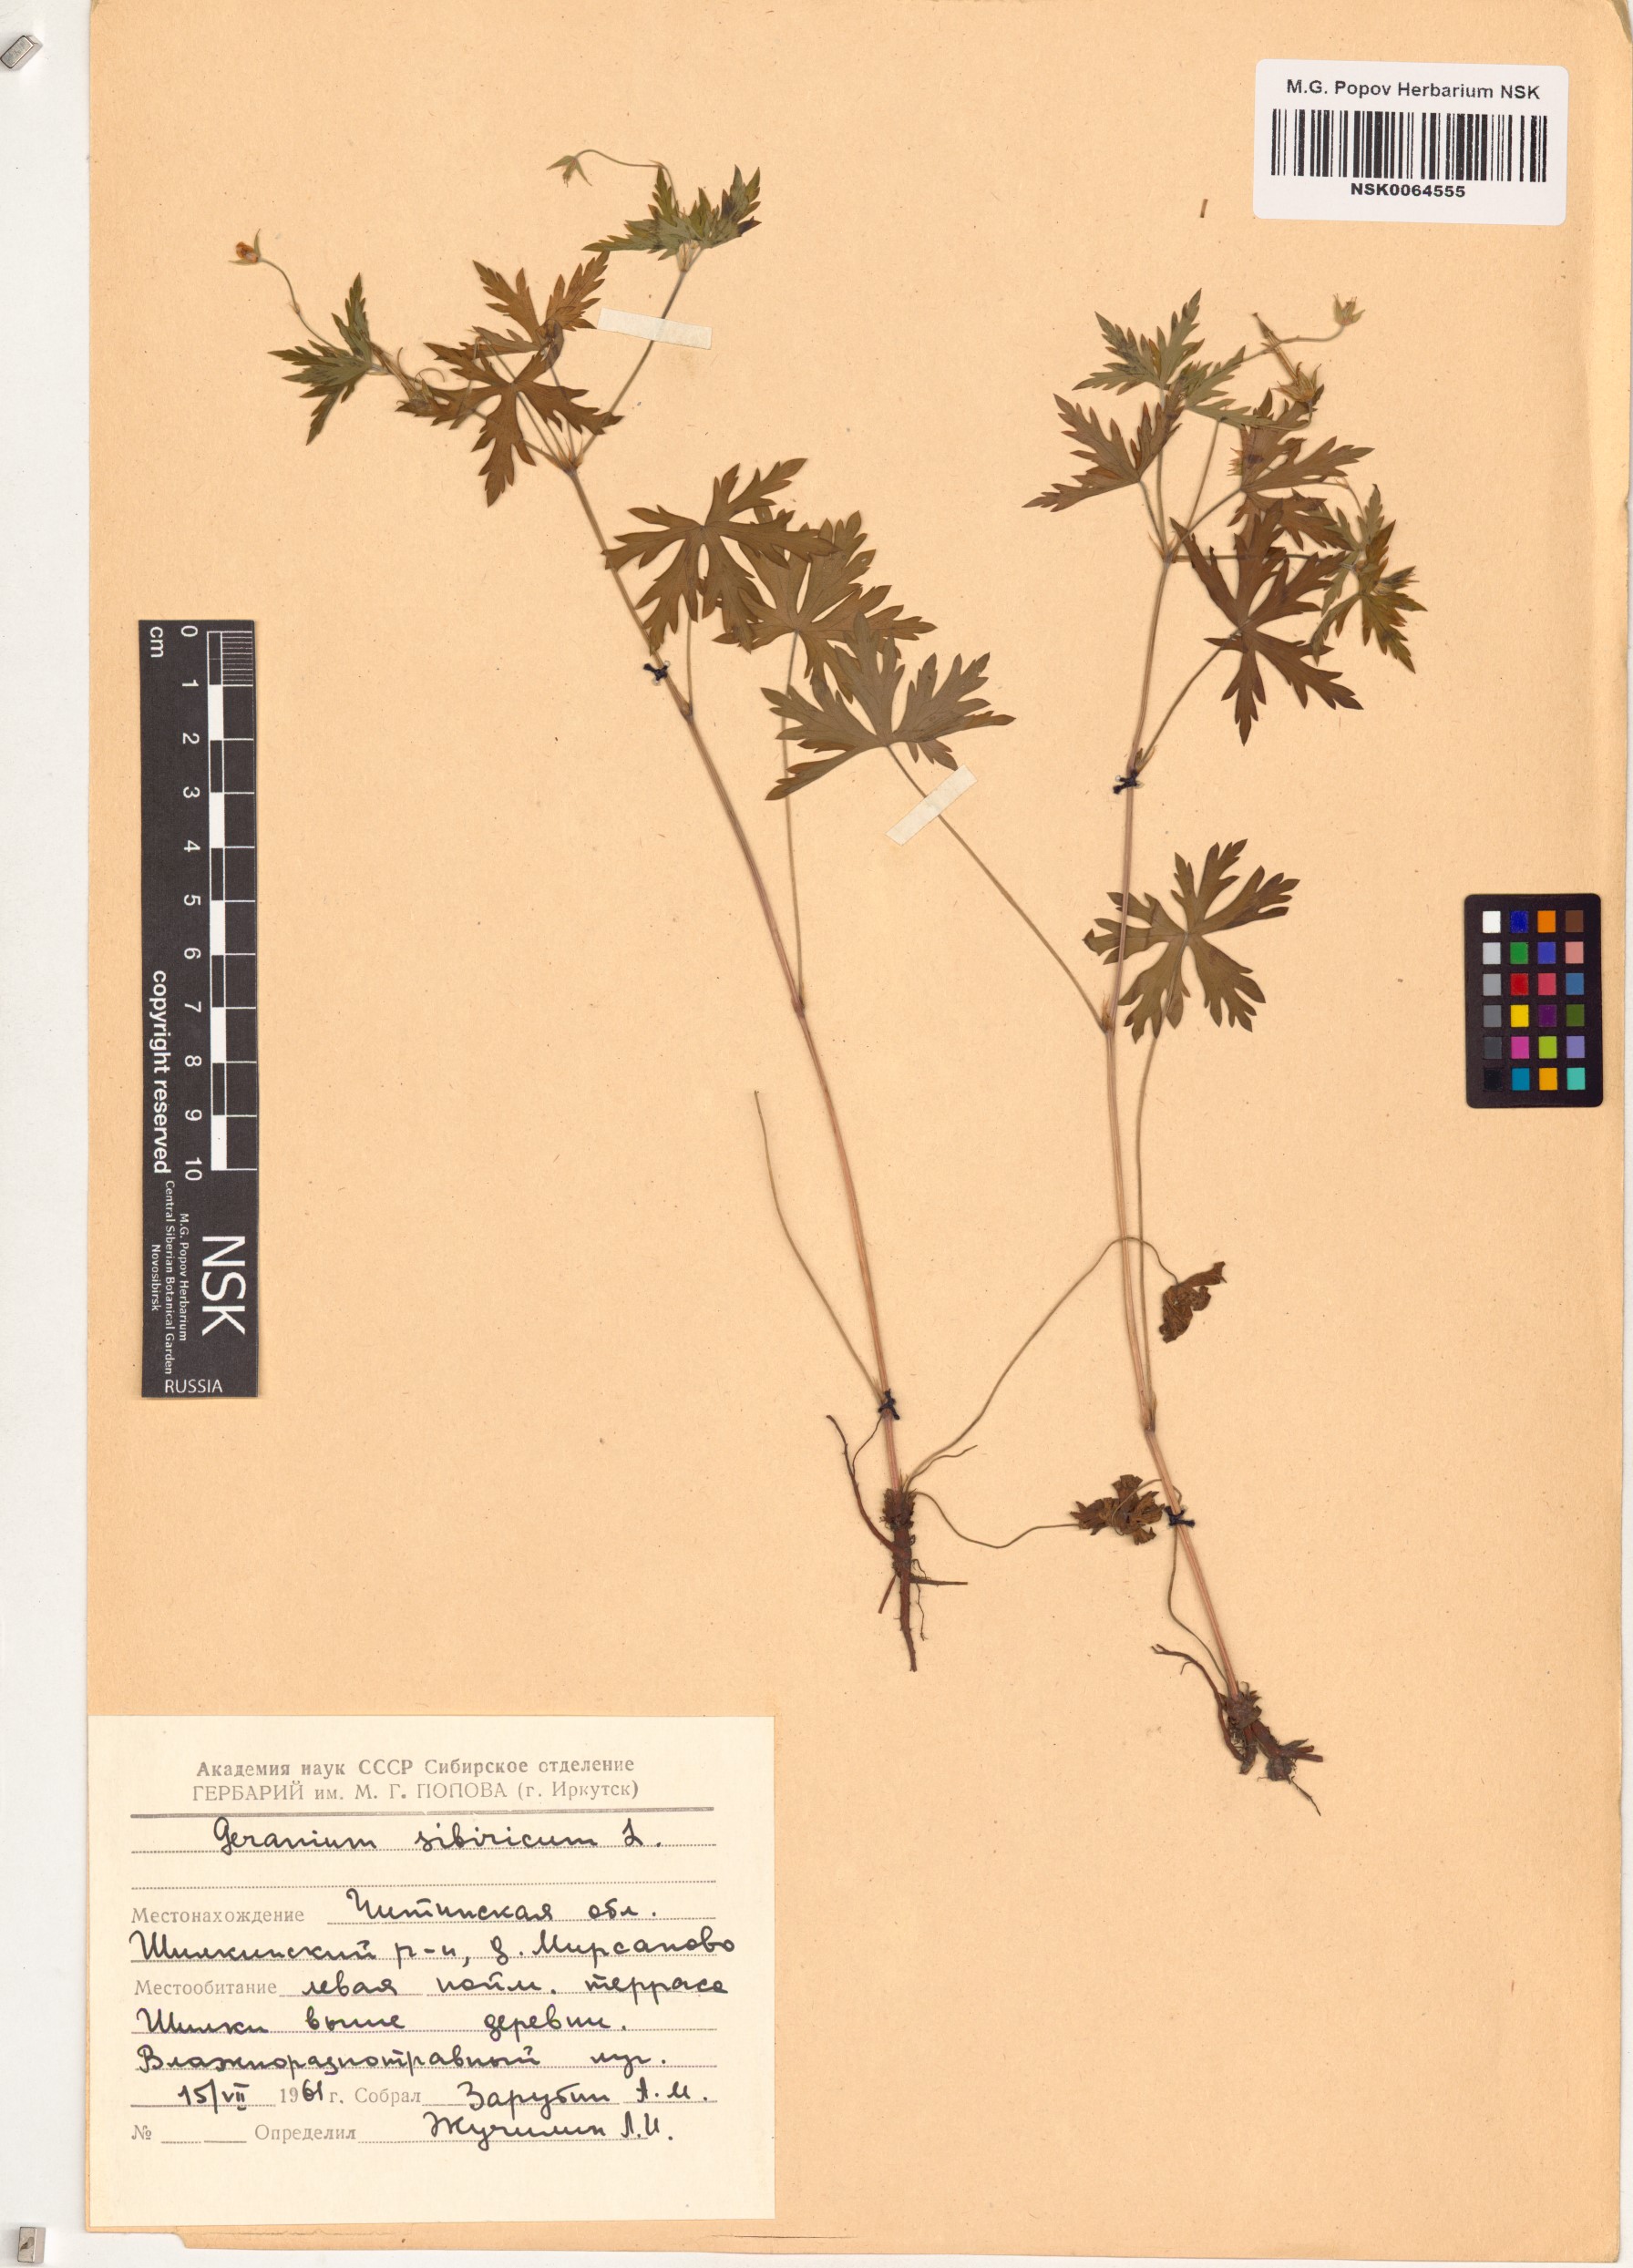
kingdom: Plantae
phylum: Tracheophyta
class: Magnoliopsida
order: Geraniales
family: Geraniaceae
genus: Geranium
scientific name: Geranium sibiricum
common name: Siberian crane's-bill
